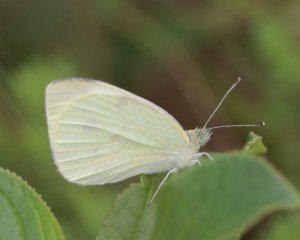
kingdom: Animalia
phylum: Arthropoda
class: Insecta
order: Lepidoptera
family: Pieridae
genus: Pieris
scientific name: Pieris rapae
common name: Cabbage White
